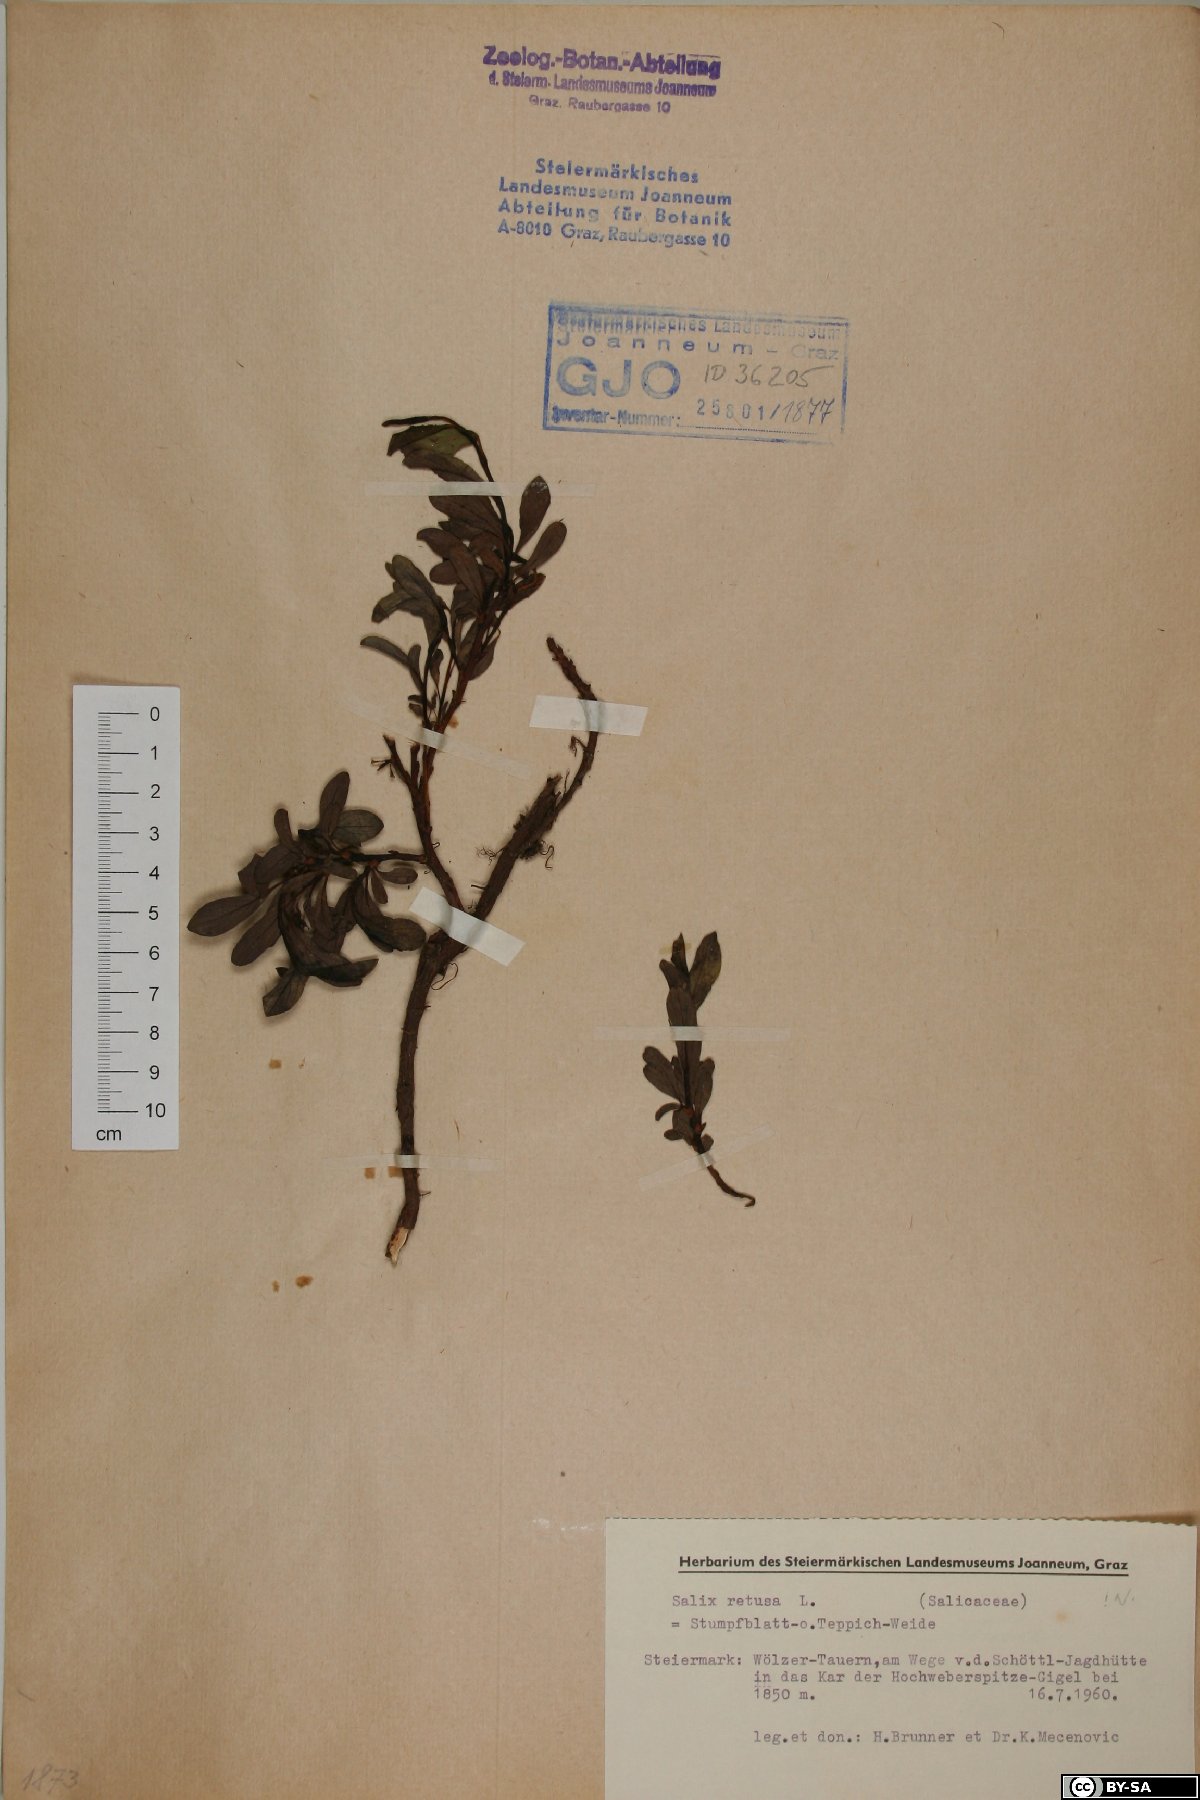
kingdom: Plantae
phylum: Tracheophyta
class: Magnoliopsida
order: Malpighiales
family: Salicaceae
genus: Salix
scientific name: Salix retusa
